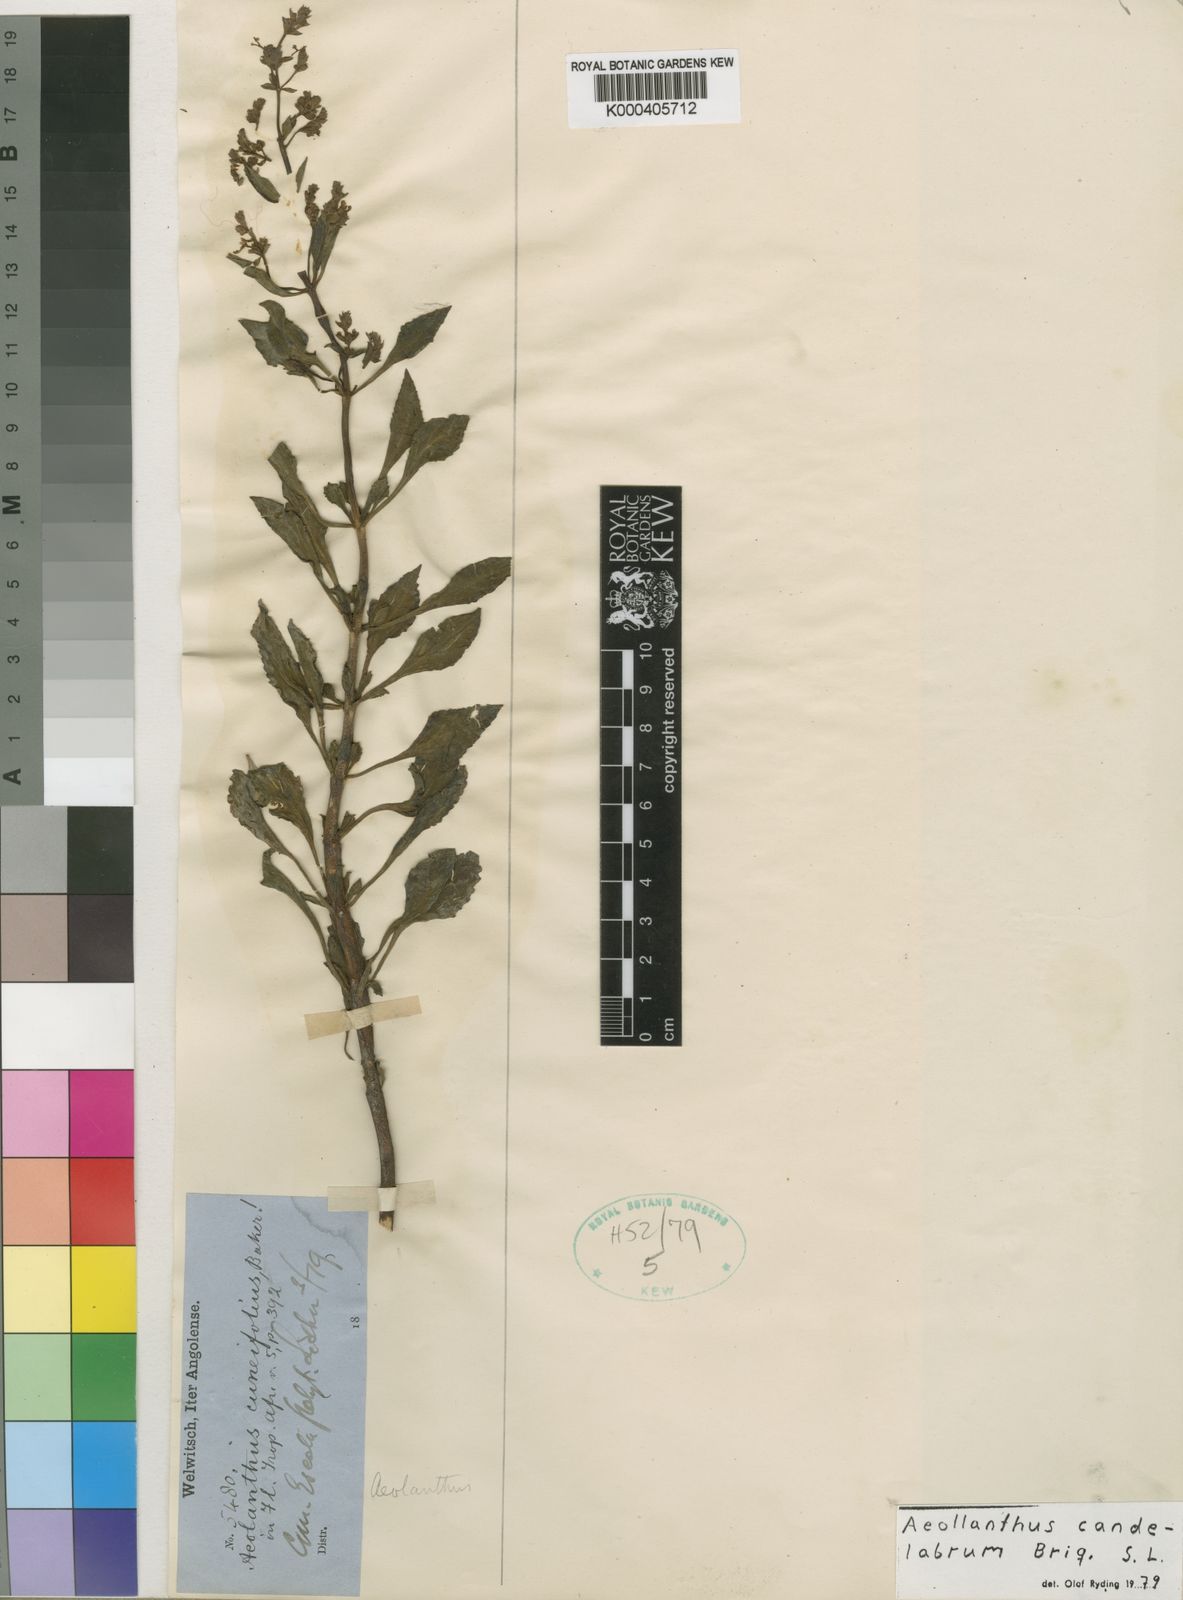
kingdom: Plantae
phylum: Tracheophyta
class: Magnoliopsida
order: Lamiales
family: Lamiaceae
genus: Aeollanthus
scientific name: Aeollanthus candelabrum
